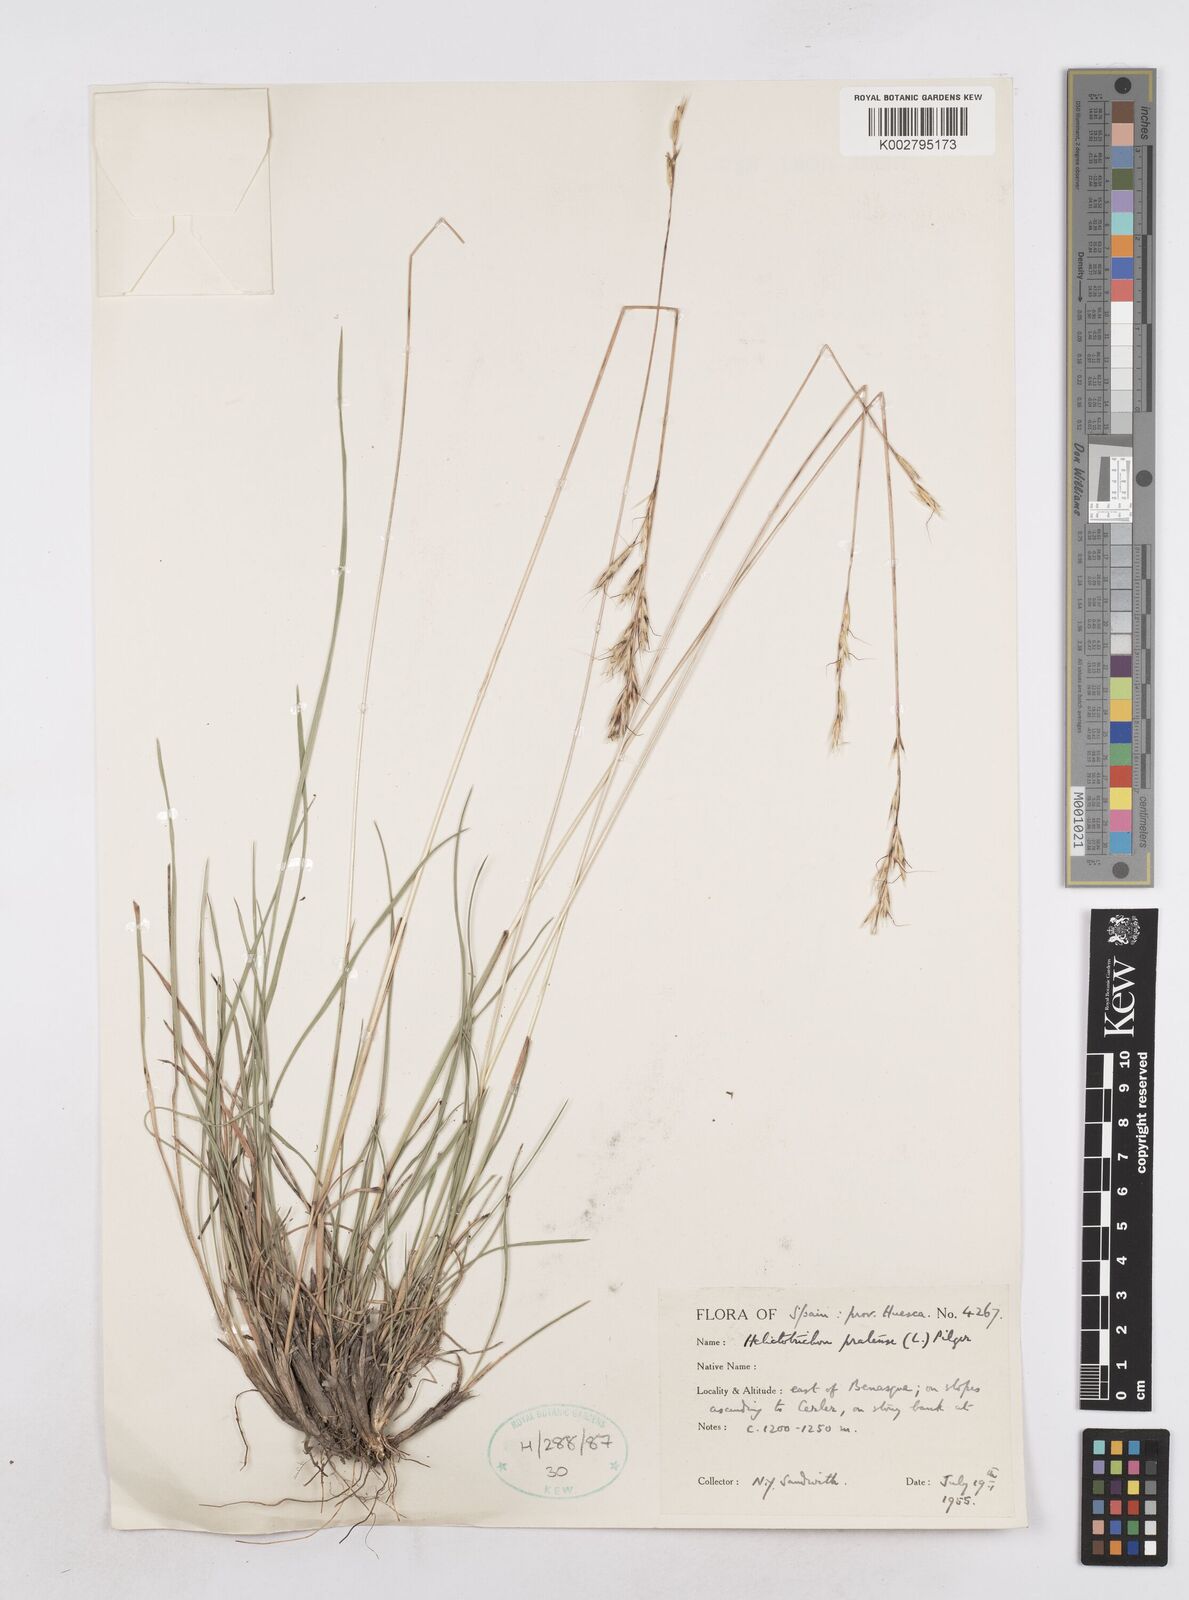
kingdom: Plantae
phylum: Tracheophyta
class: Liliopsida
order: Poales
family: Poaceae
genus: Helictochloa
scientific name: Helictochloa pratensis
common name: Meadow oat grass
